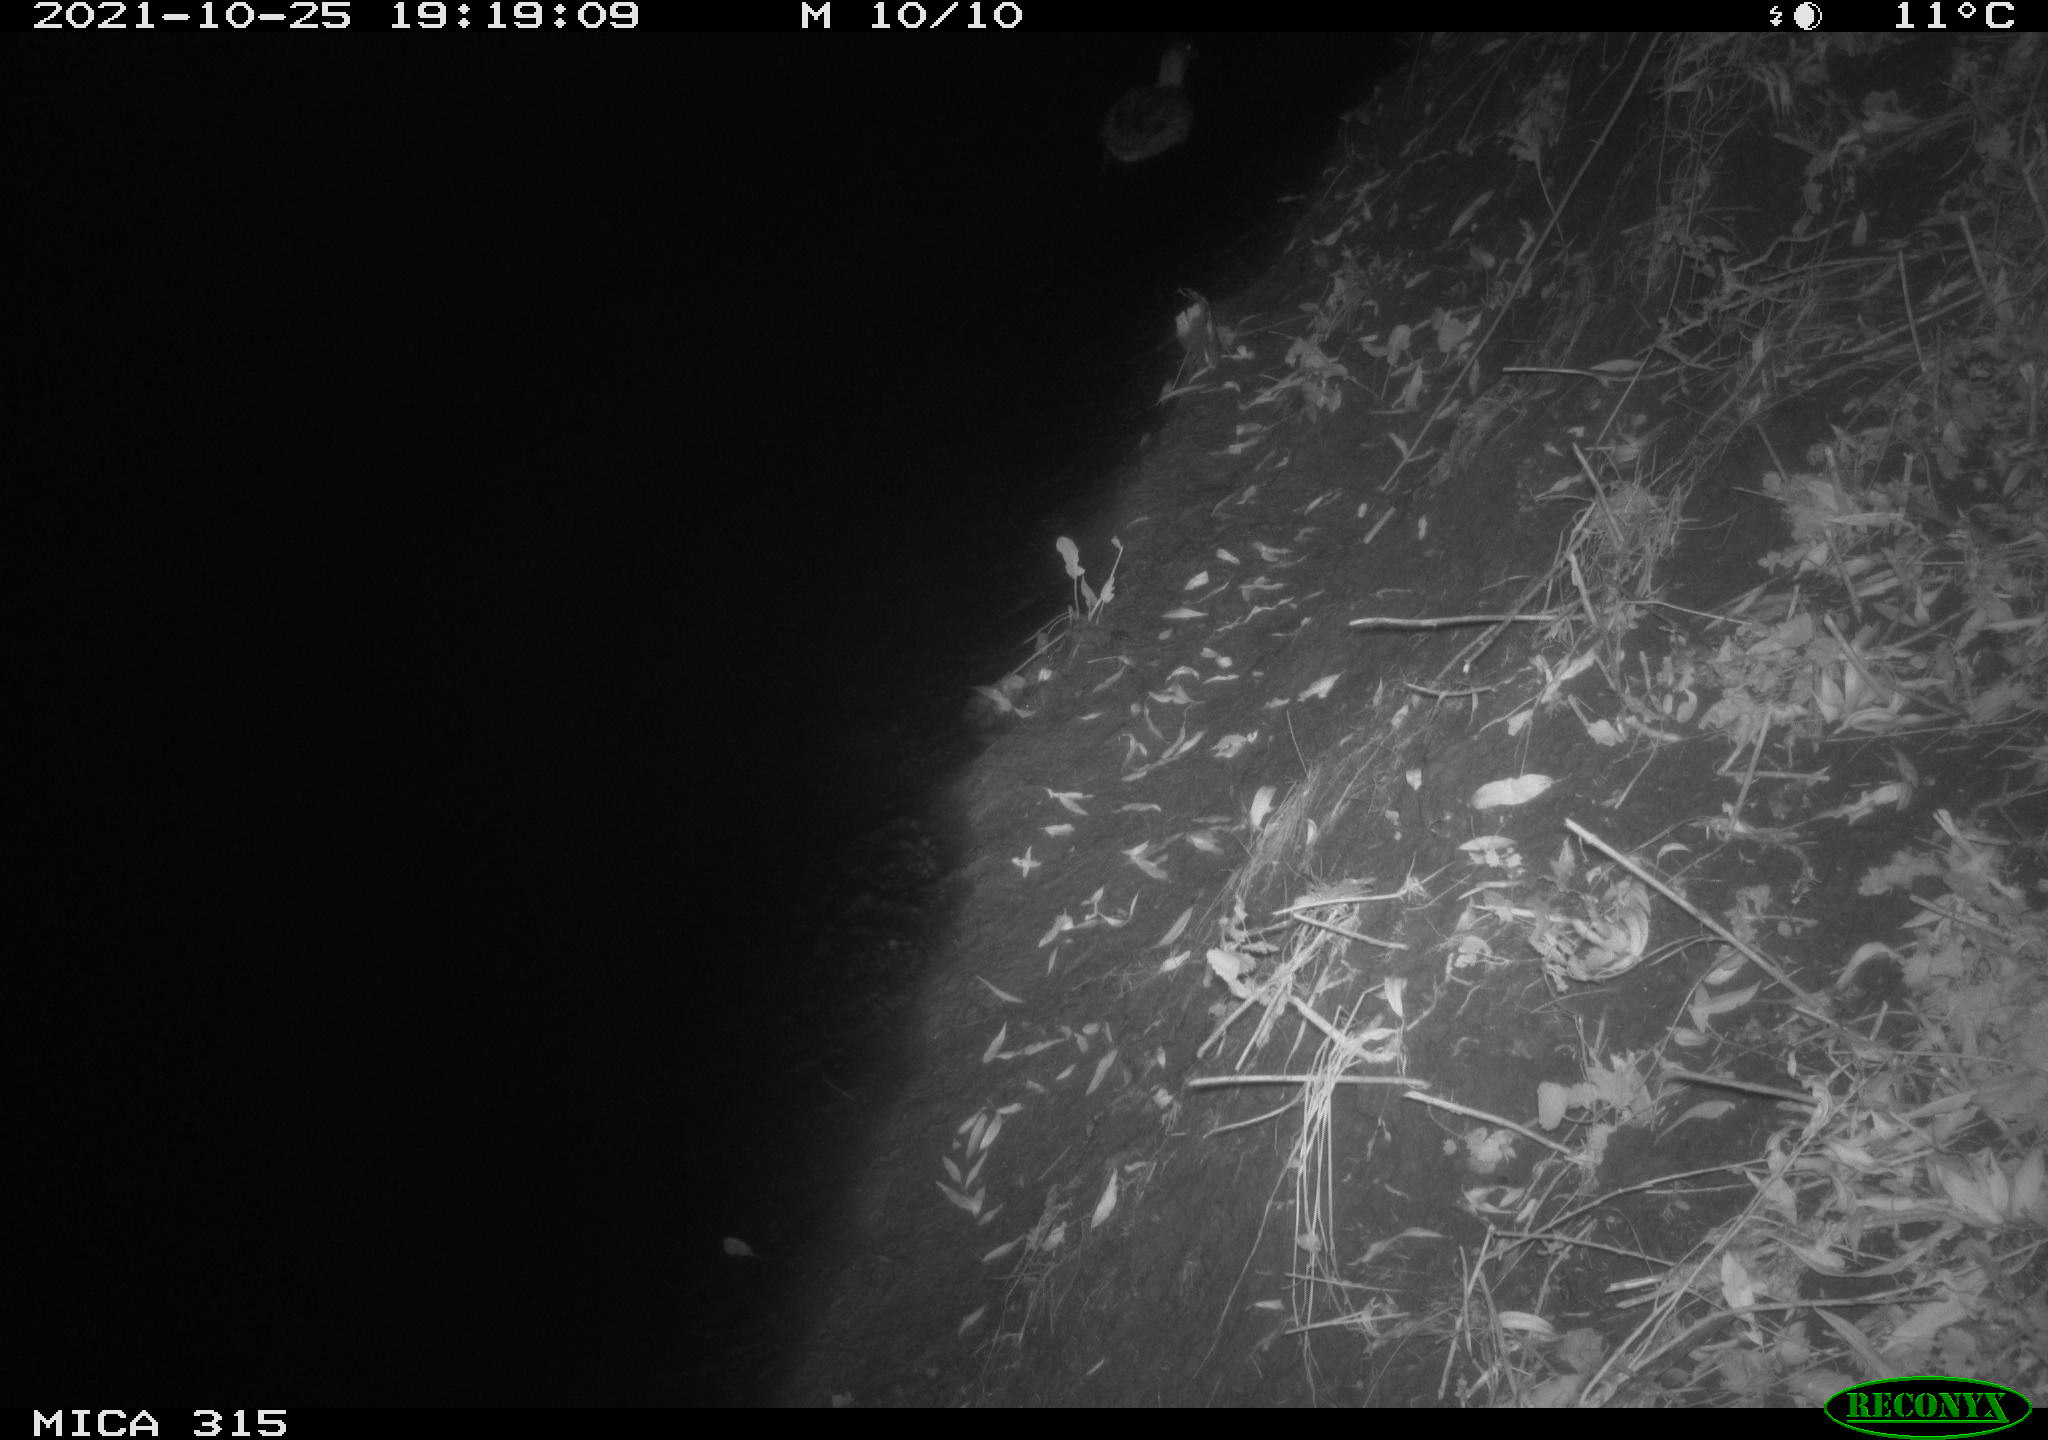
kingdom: Animalia
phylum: Chordata
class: Aves
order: Anseriformes
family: Anatidae
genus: Anas
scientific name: Anas platyrhynchos
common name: Mallard
